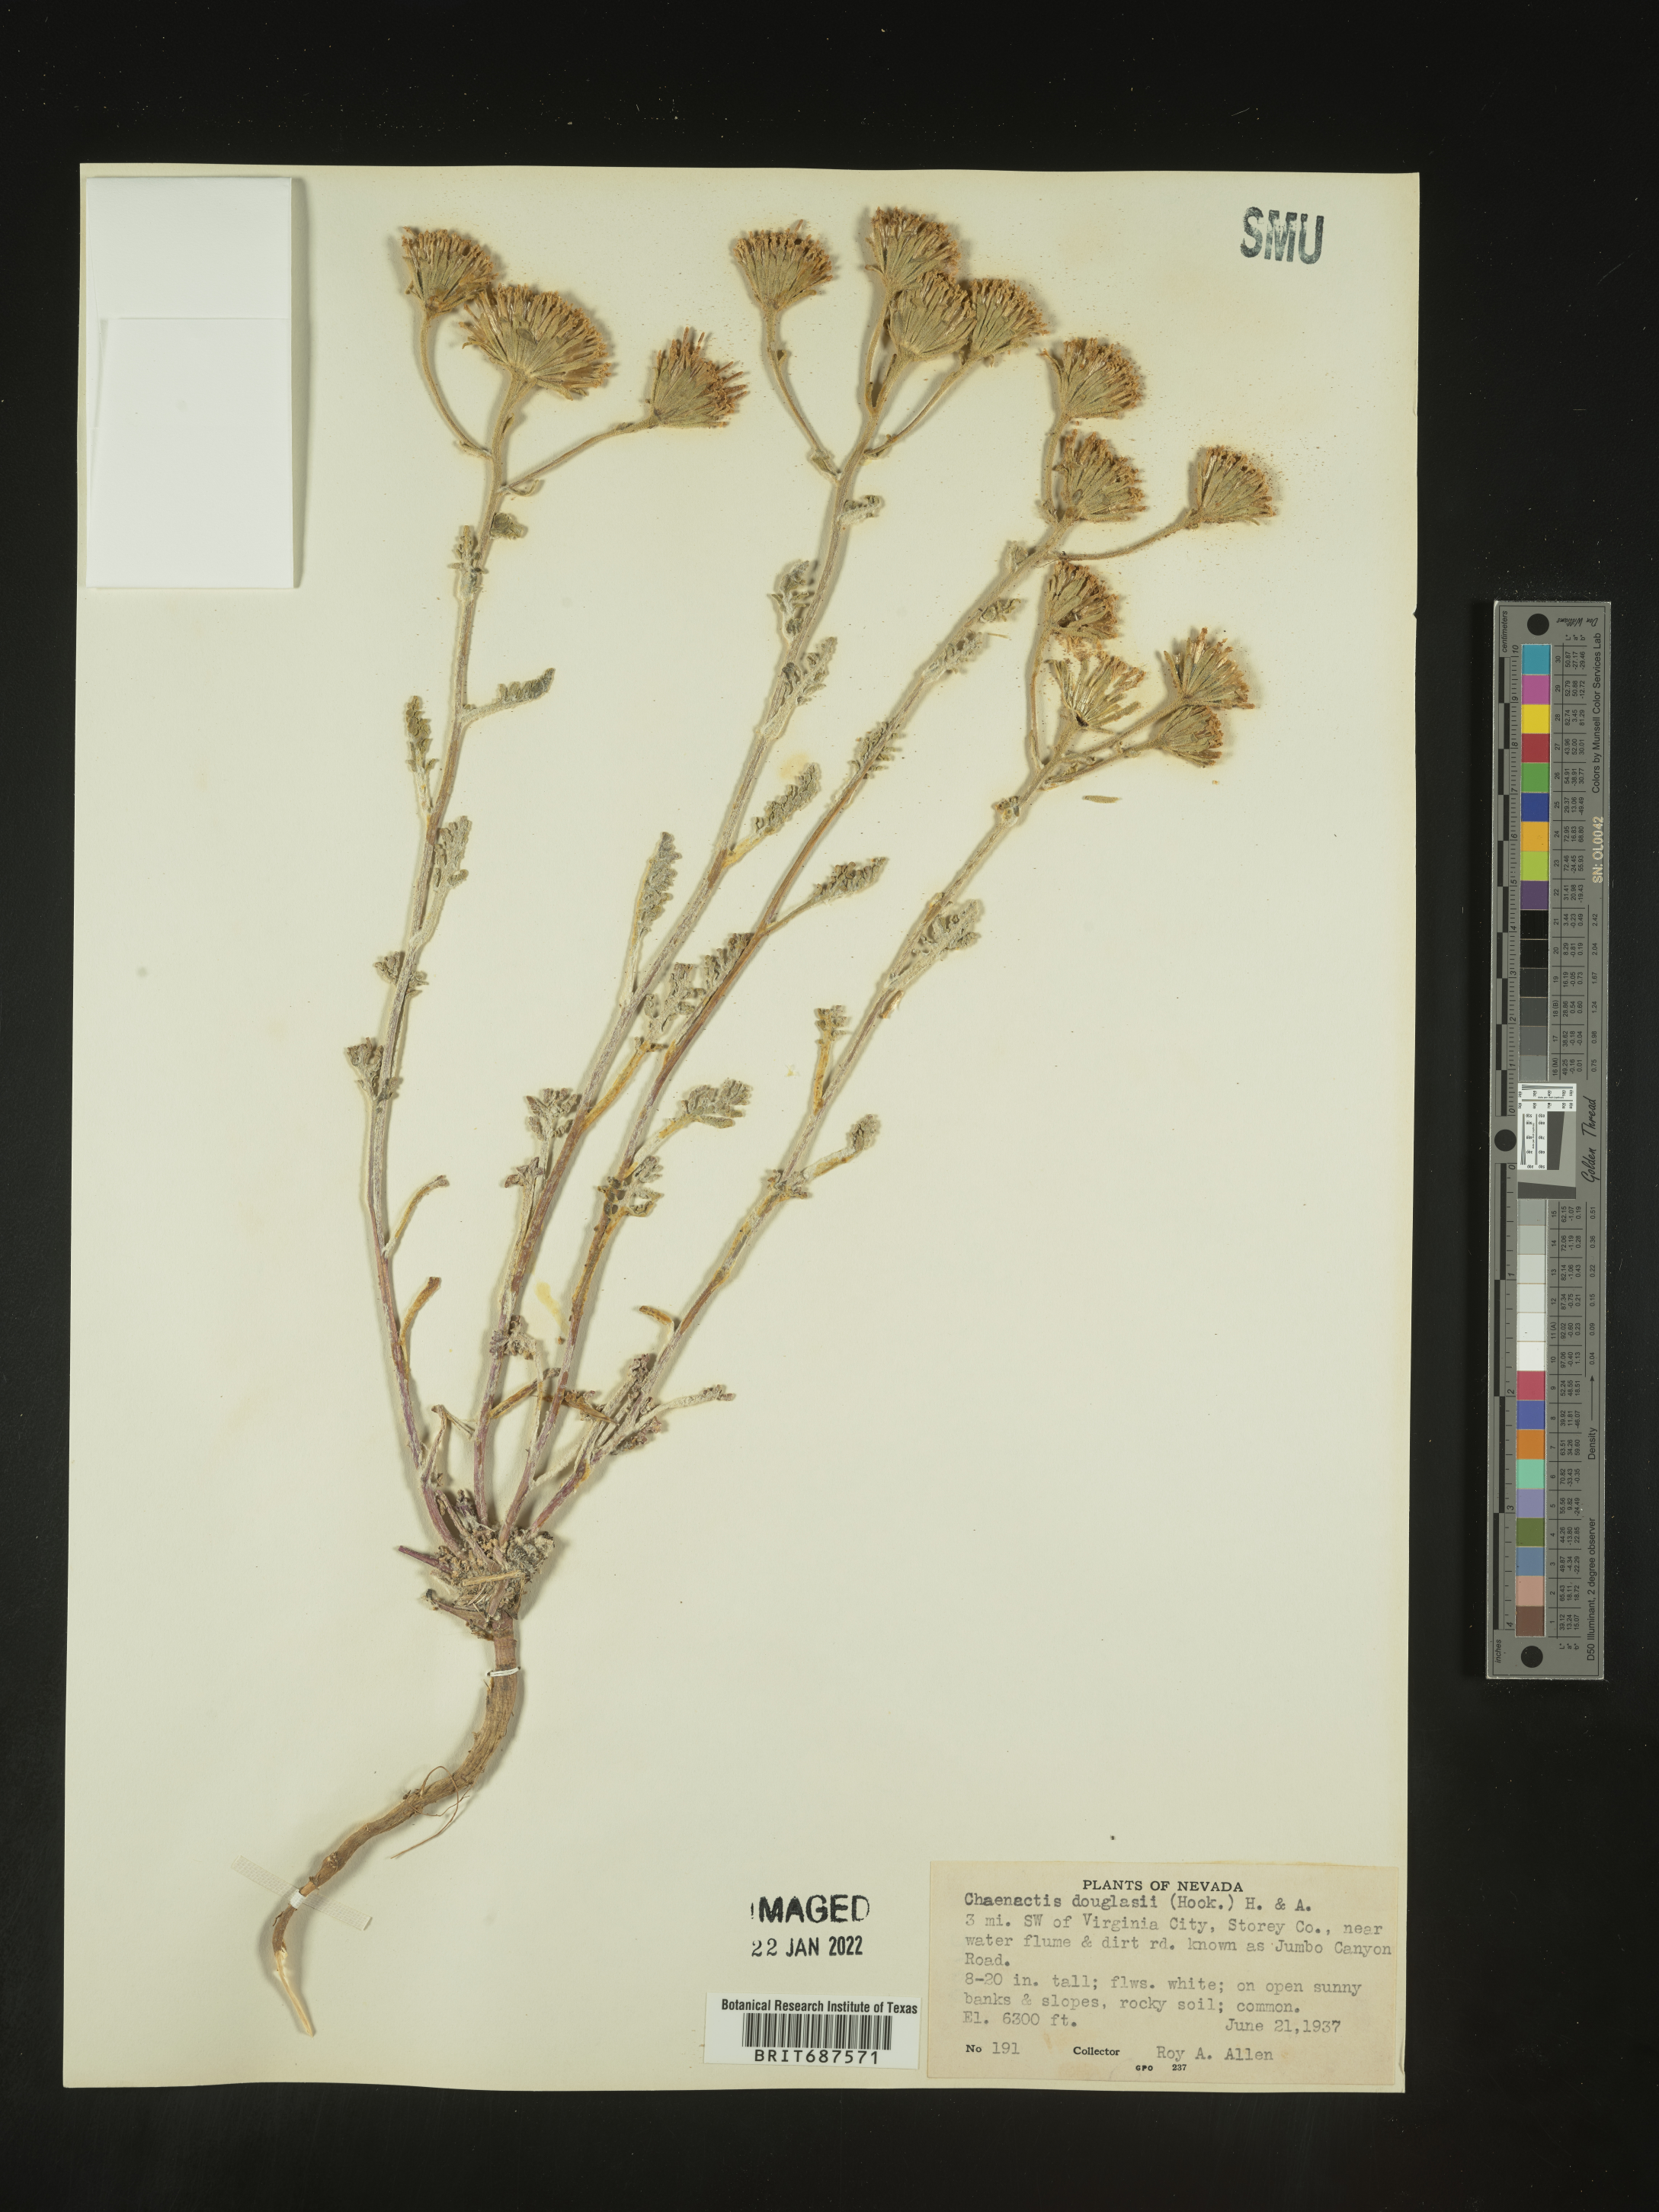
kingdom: Plantae
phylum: Tracheophyta
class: Magnoliopsida
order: Asterales
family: Asteraceae
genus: Chaenactis
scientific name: Chaenactis douglasii
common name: Hoary pincushion
